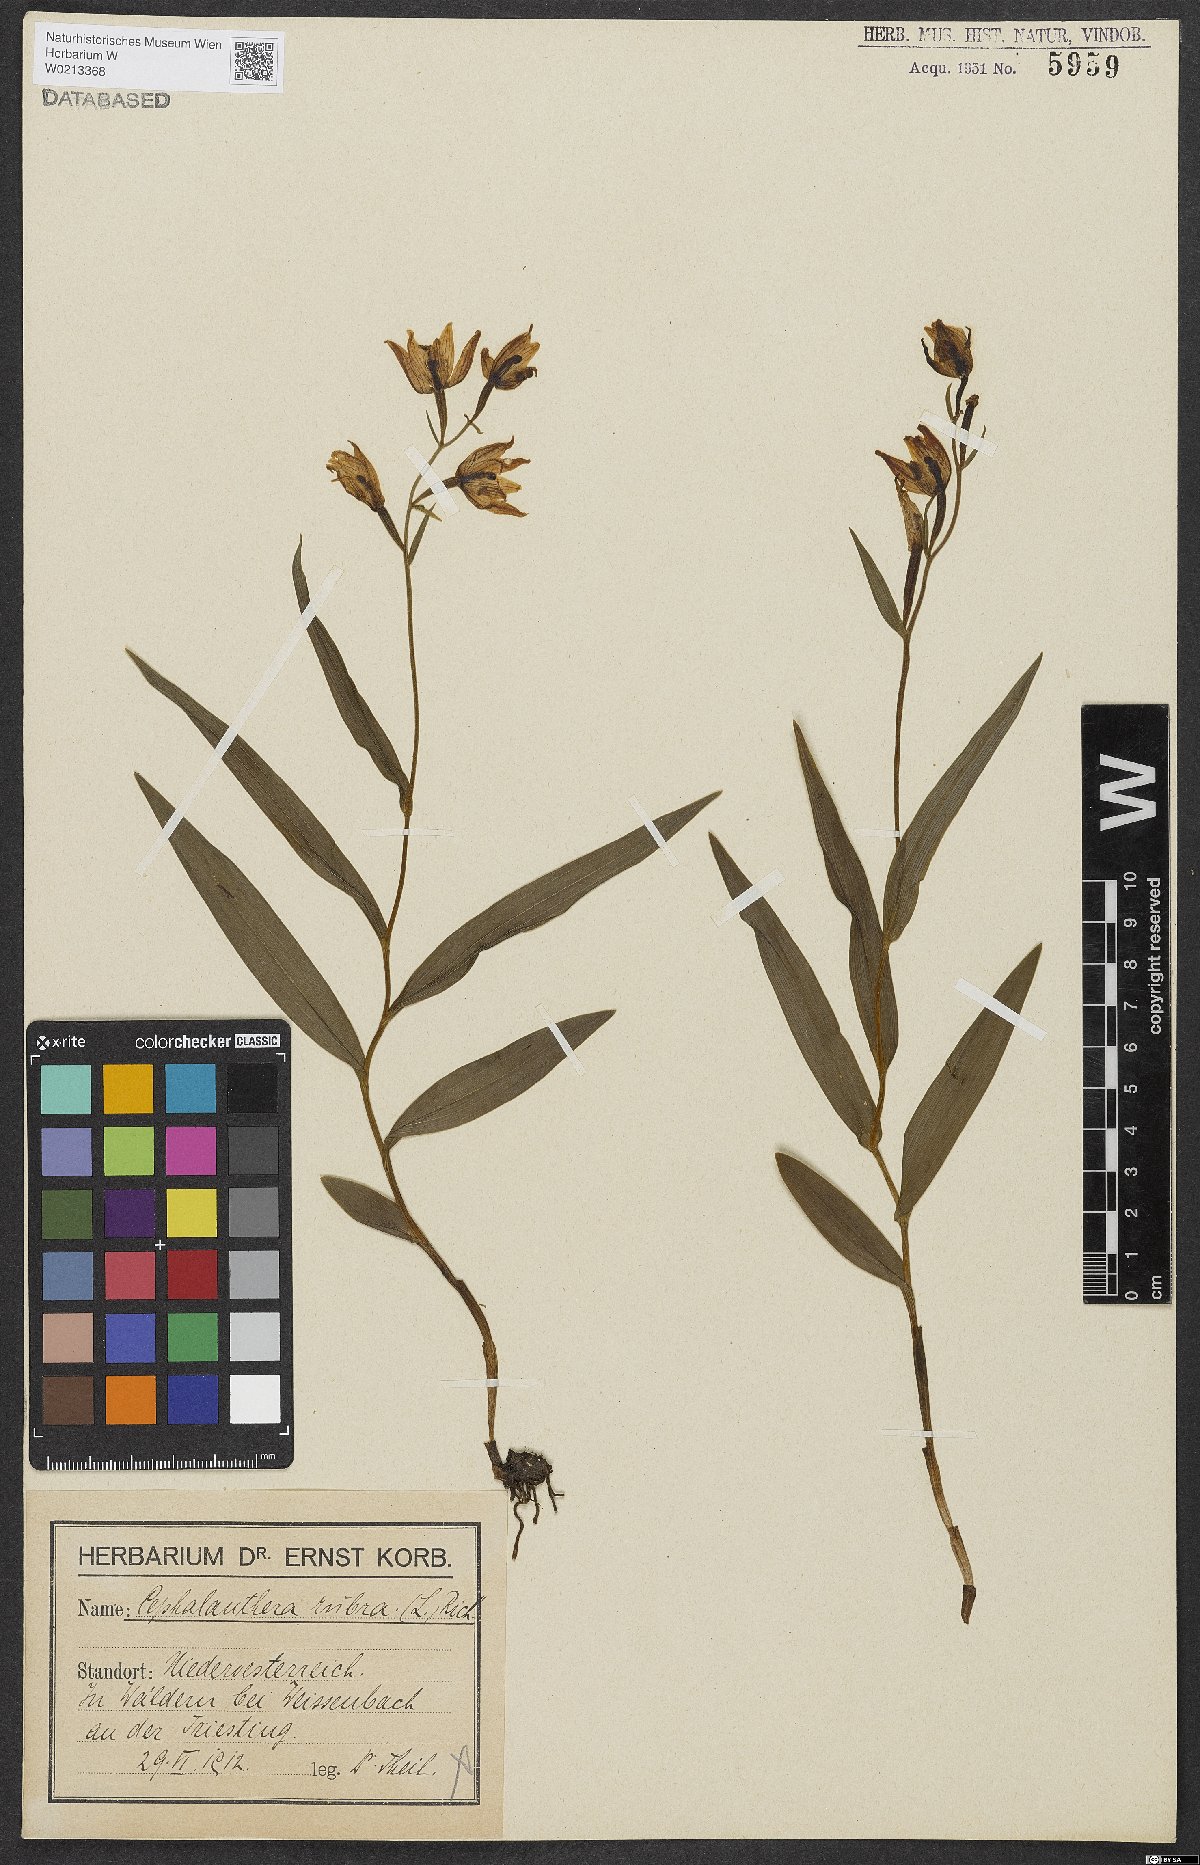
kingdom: Plantae
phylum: Tracheophyta
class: Liliopsida
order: Asparagales
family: Orchidaceae
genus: Cephalanthera
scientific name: Cephalanthera rubra
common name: Red helleborine
